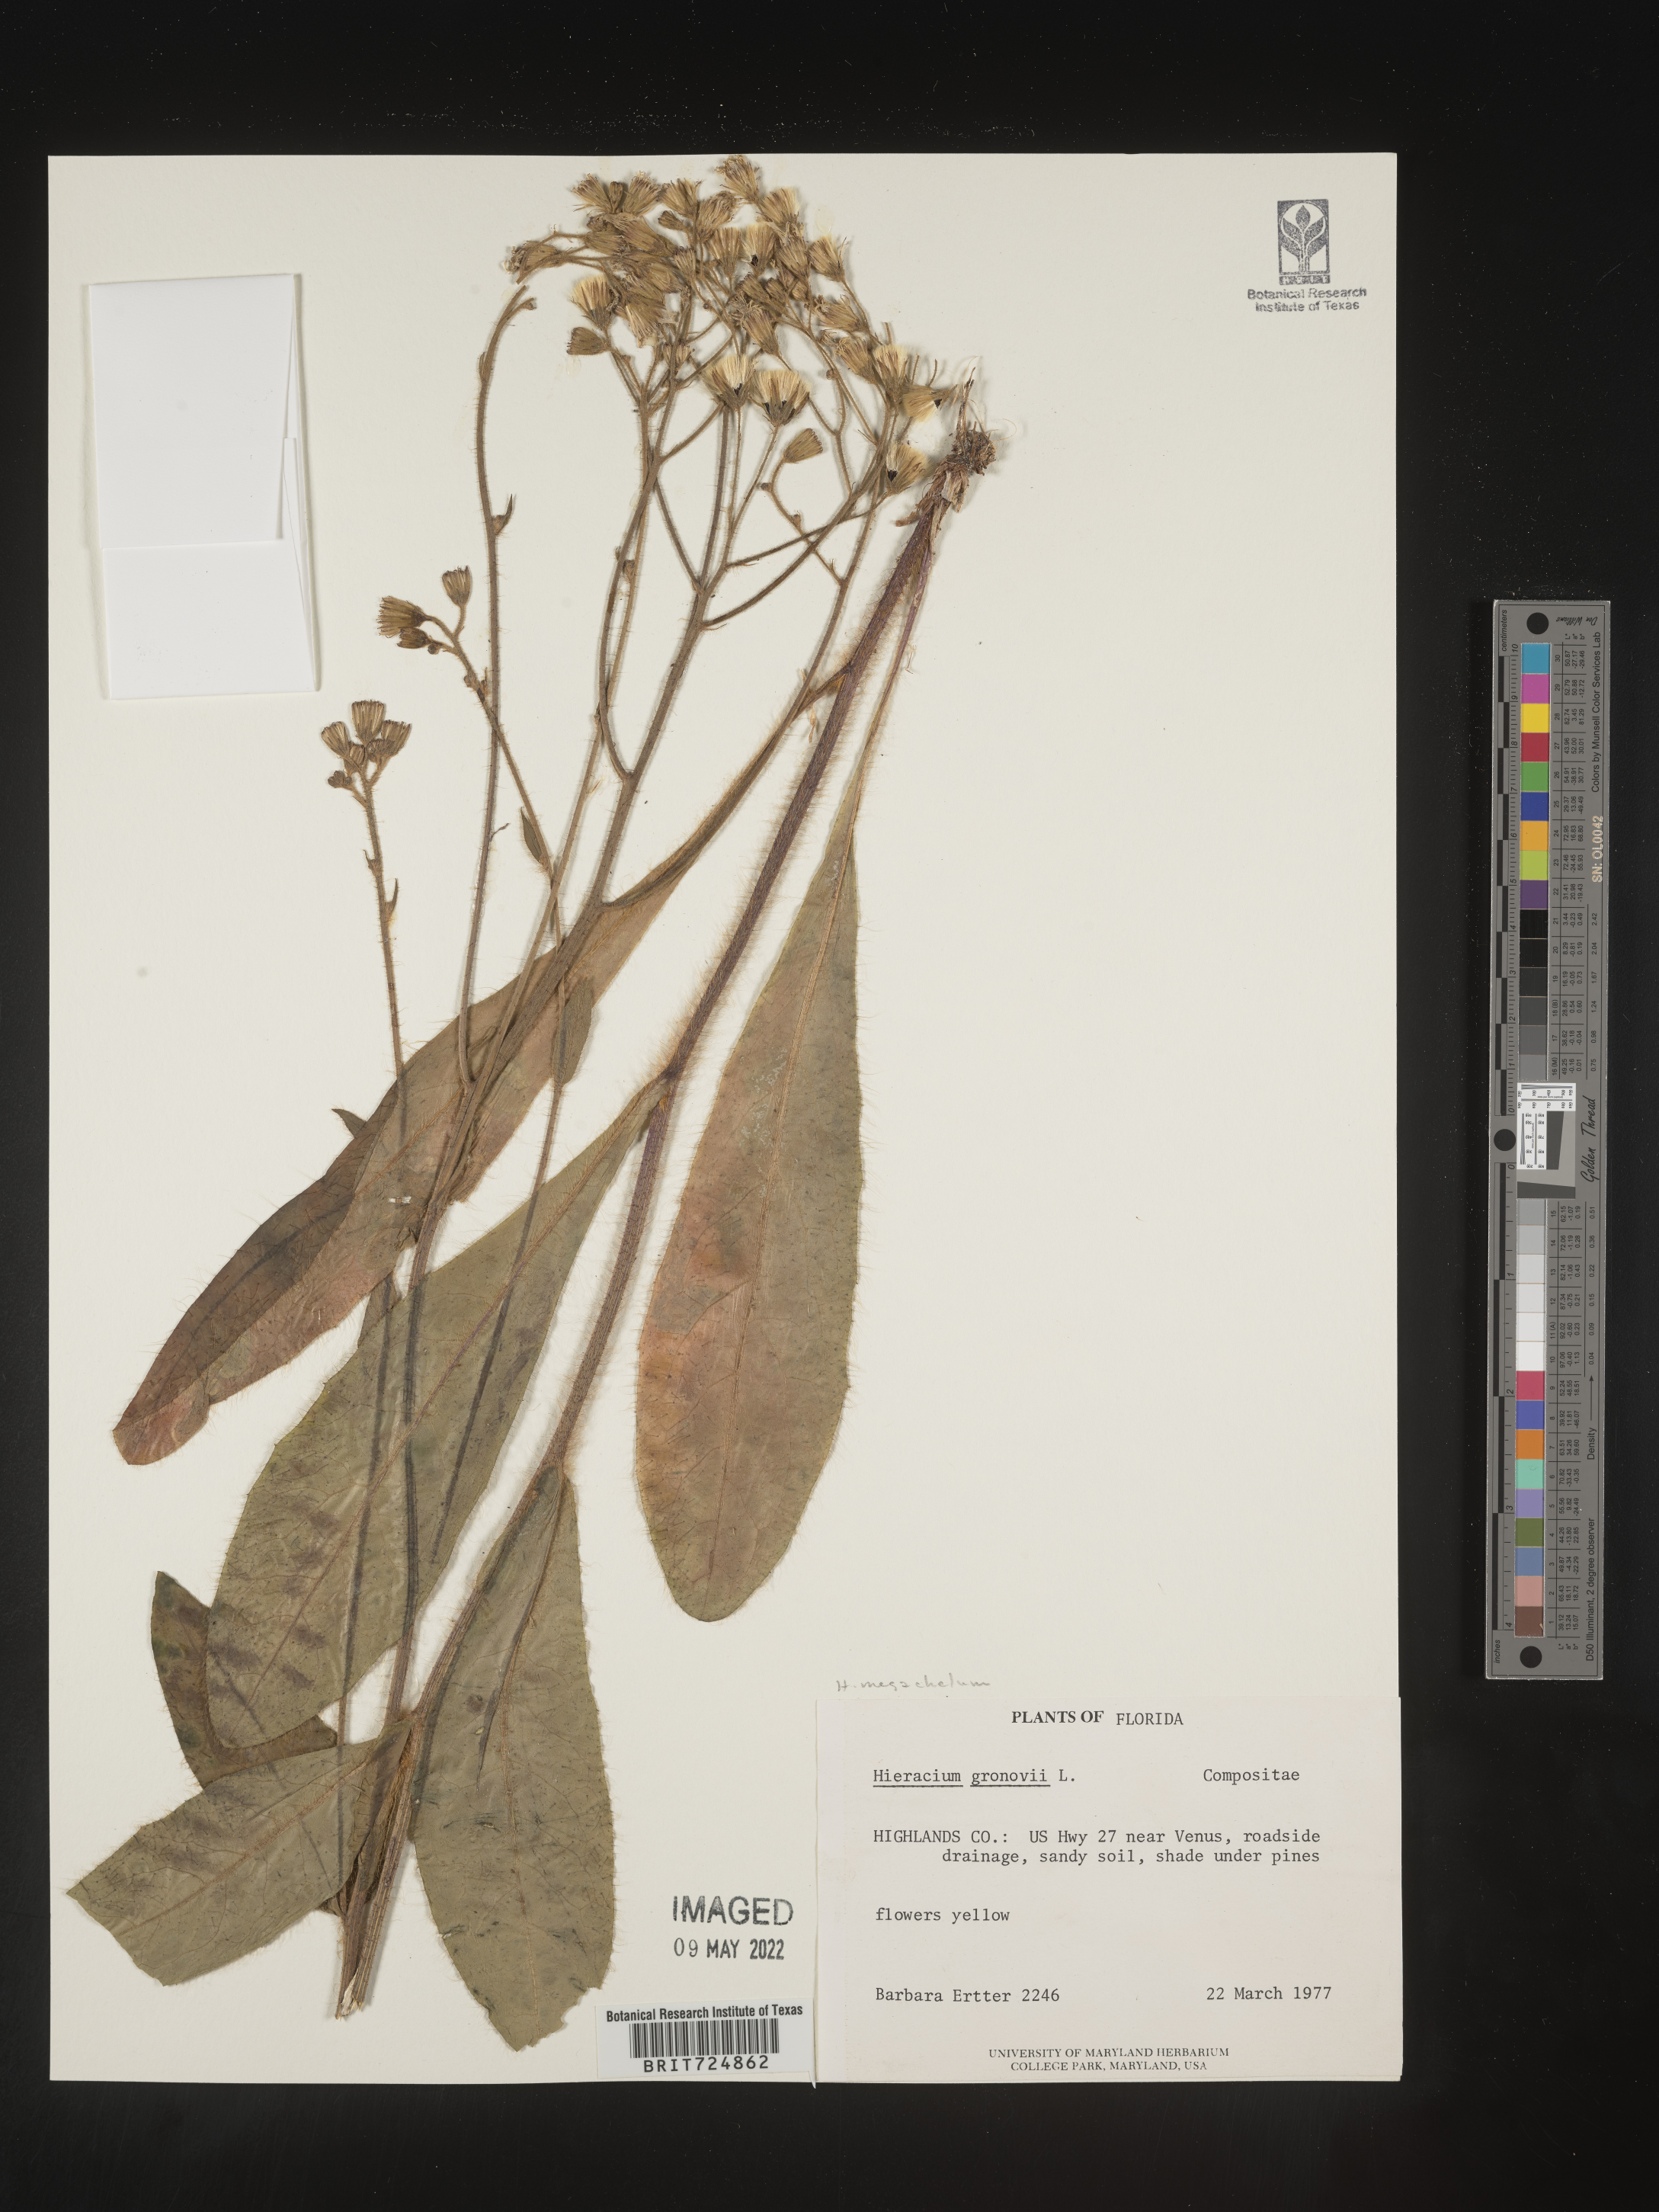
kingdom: Plantae
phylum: Tracheophyta
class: Magnoliopsida
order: Asterales
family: Asteraceae
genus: Hieracium
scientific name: Hieracium megacephalum
